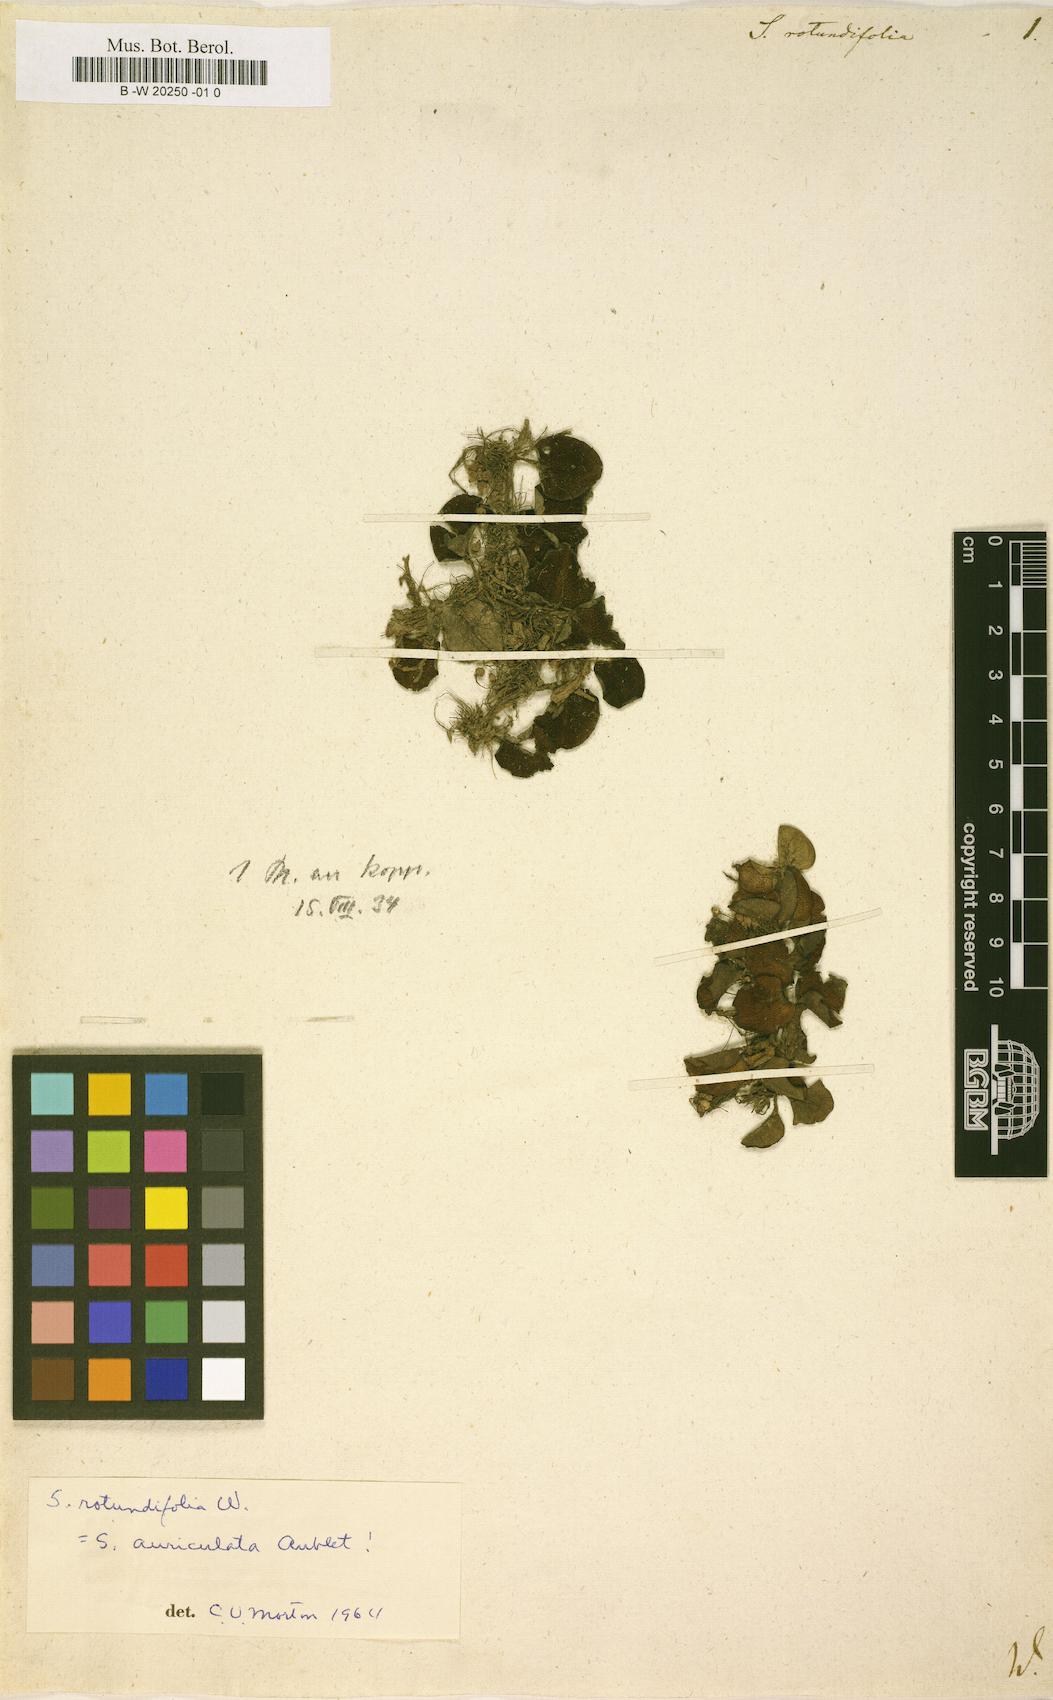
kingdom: Plantae
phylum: Tracheophyta
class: Polypodiopsida
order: Salviniales
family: Salviniaceae
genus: Salvinia
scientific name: Salvinia auriculata
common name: African payal
